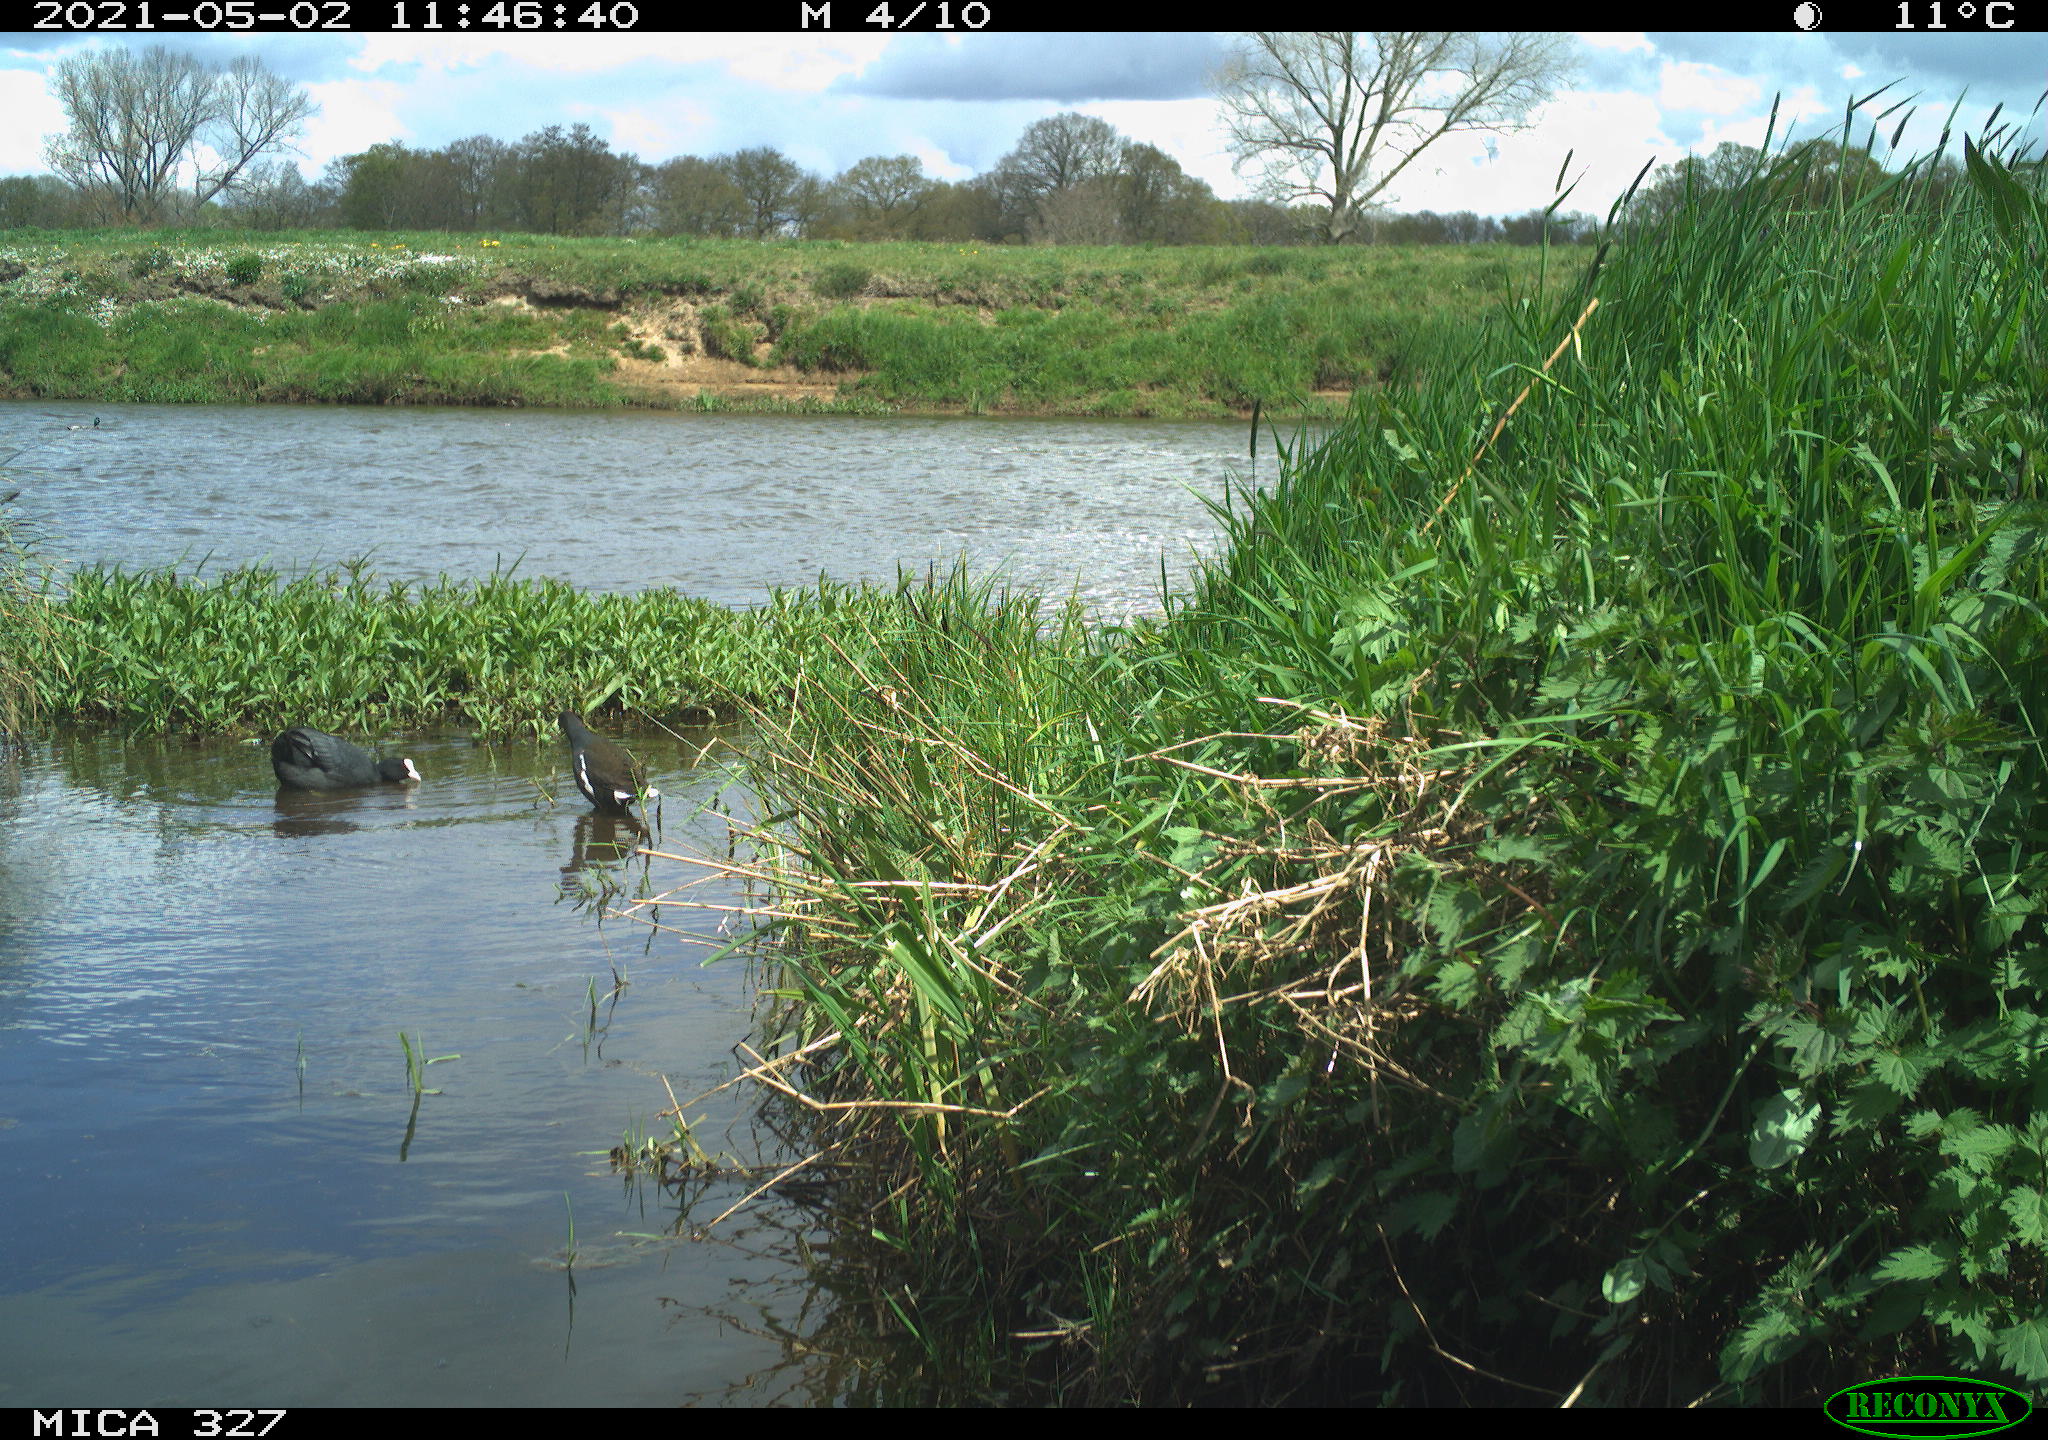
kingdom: Animalia
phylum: Chordata
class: Aves
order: Passeriformes
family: Corvidae
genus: Corvus
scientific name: Corvus corone
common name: Carrion crow
